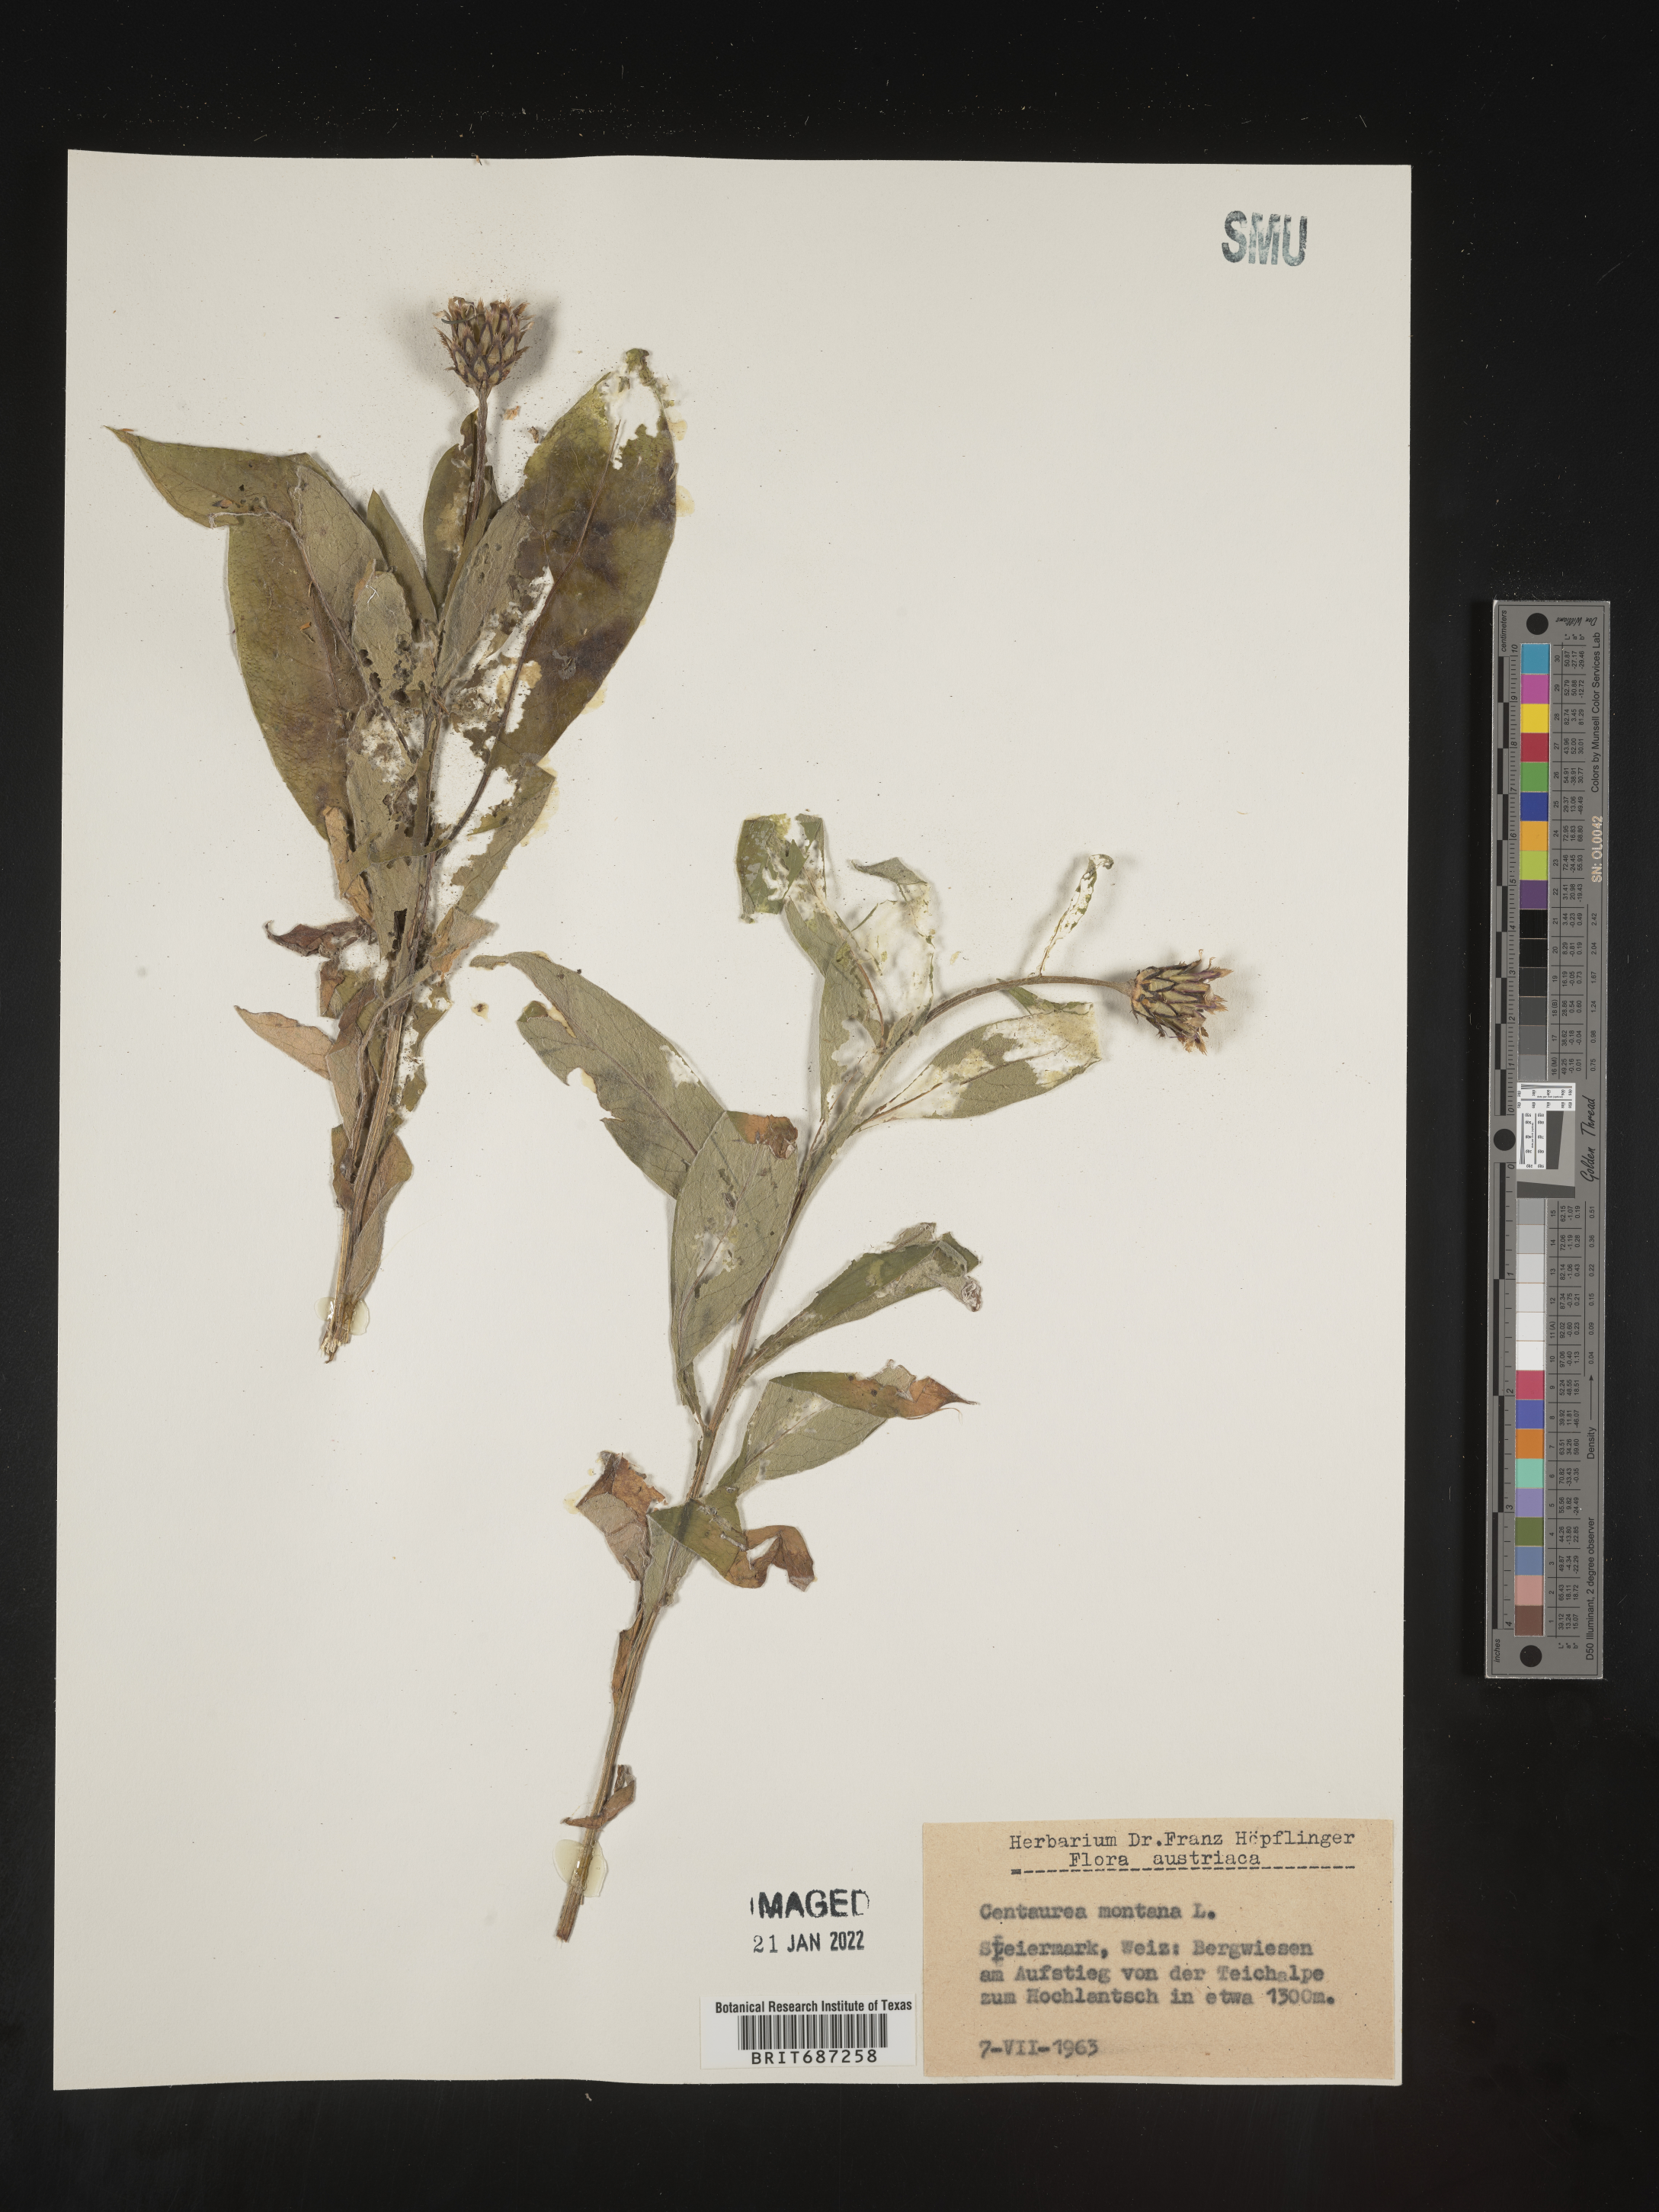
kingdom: Plantae
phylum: Tracheophyta
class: Magnoliopsida
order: Asterales
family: Asteraceae
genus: Centaurea
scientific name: Centaurea
